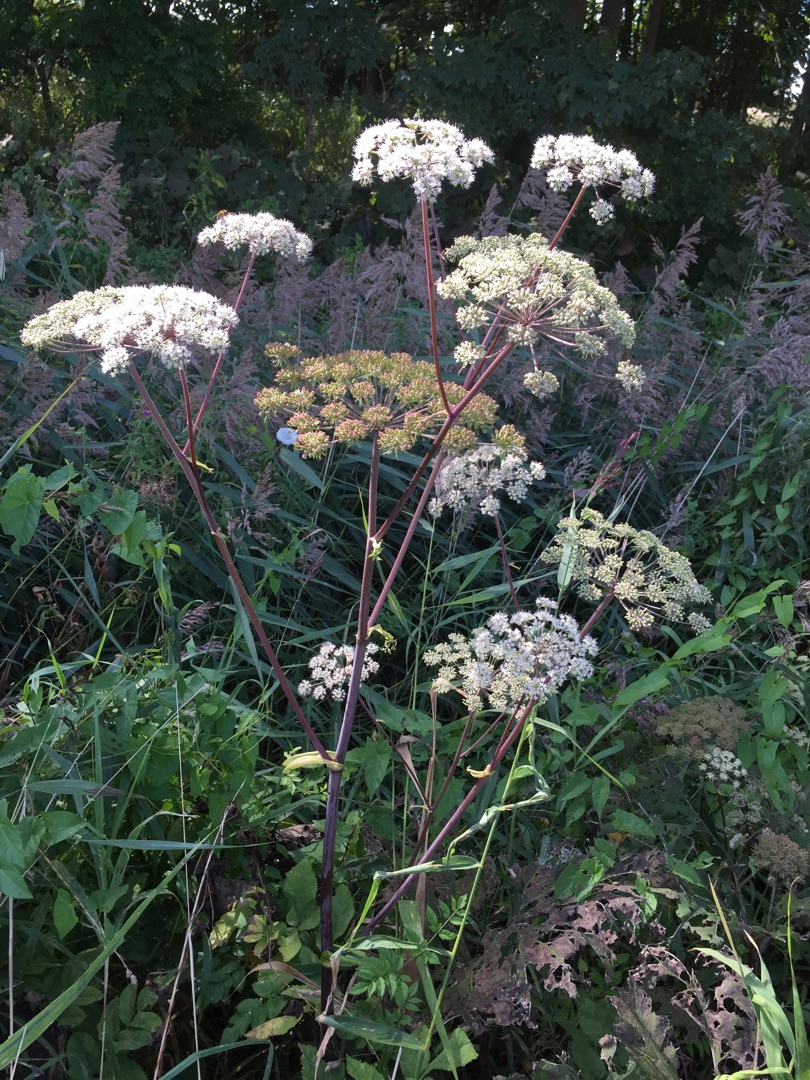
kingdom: Plantae
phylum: Tracheophyta
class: Magnoliopsida
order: Apiales
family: Apiaceae
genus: Angelica
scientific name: Angelica sylvestris
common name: Angelik
